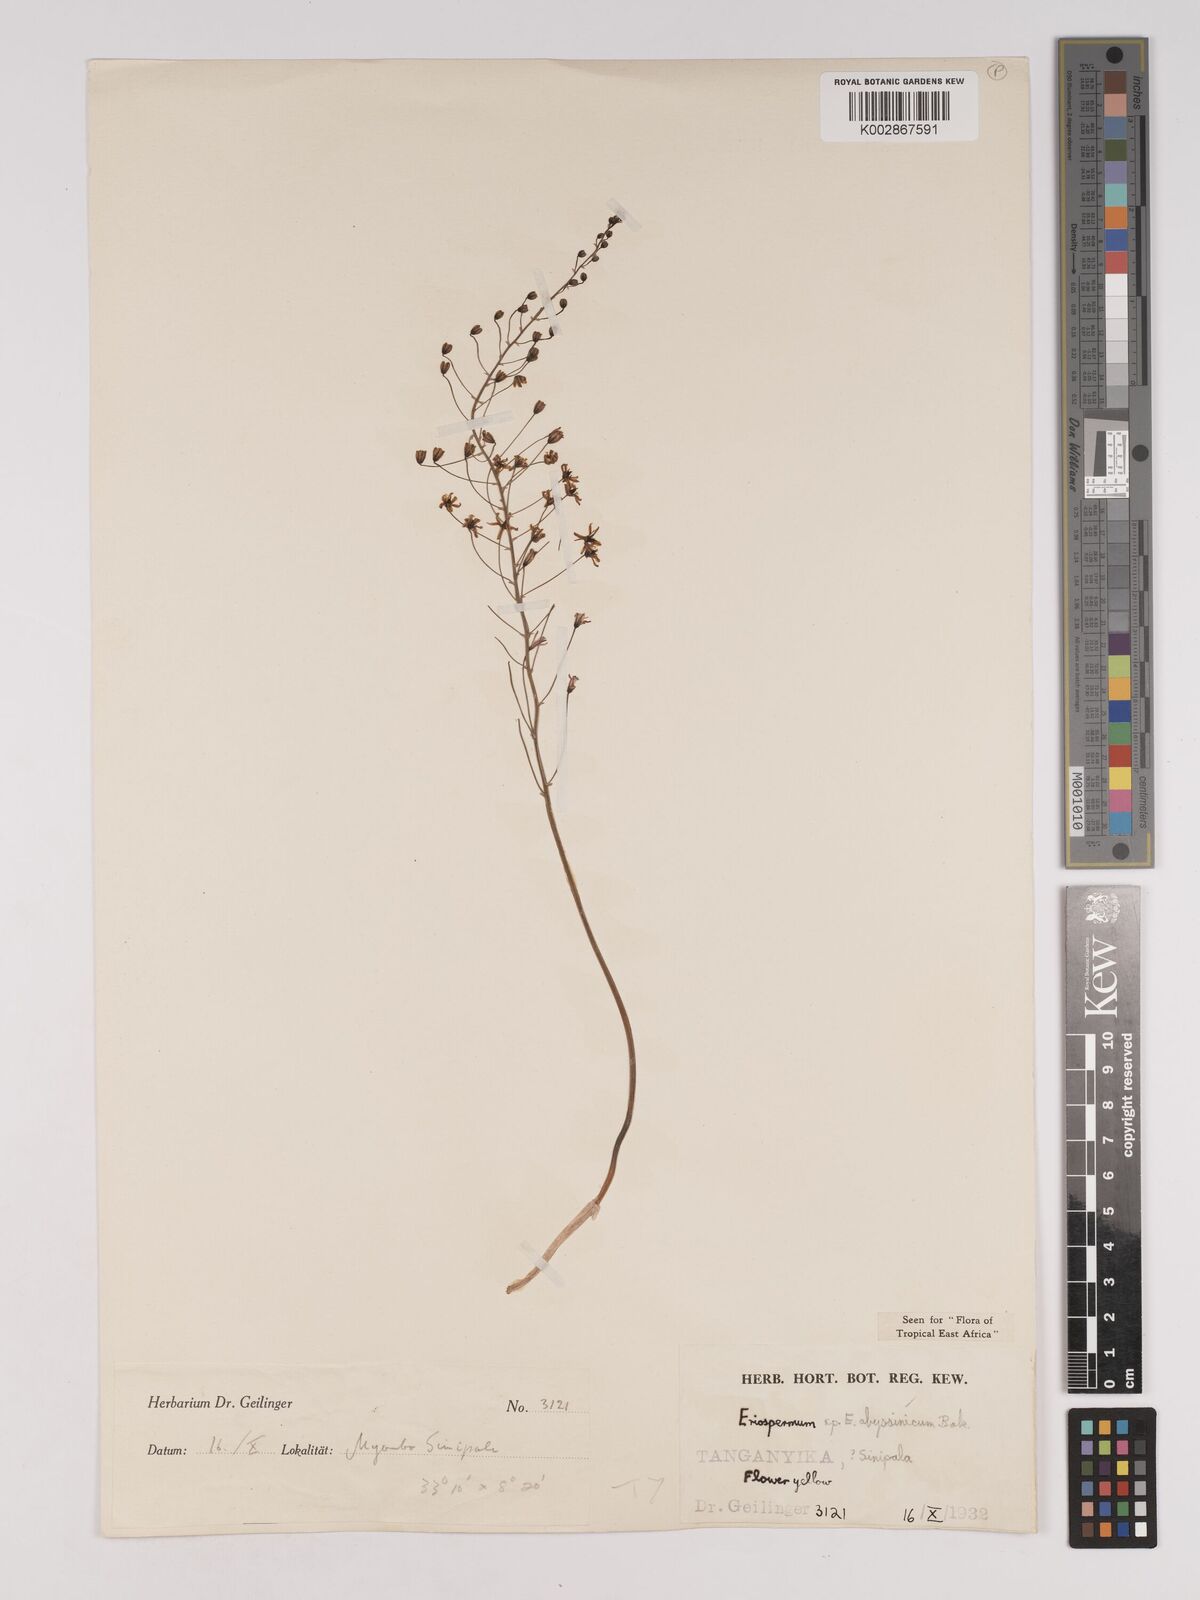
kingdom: Plantae
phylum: Tracheophyta
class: Liliopsida
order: Asparagales
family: Asparagaceae
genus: Eriospermum
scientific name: Eriospermum abyssinicum
